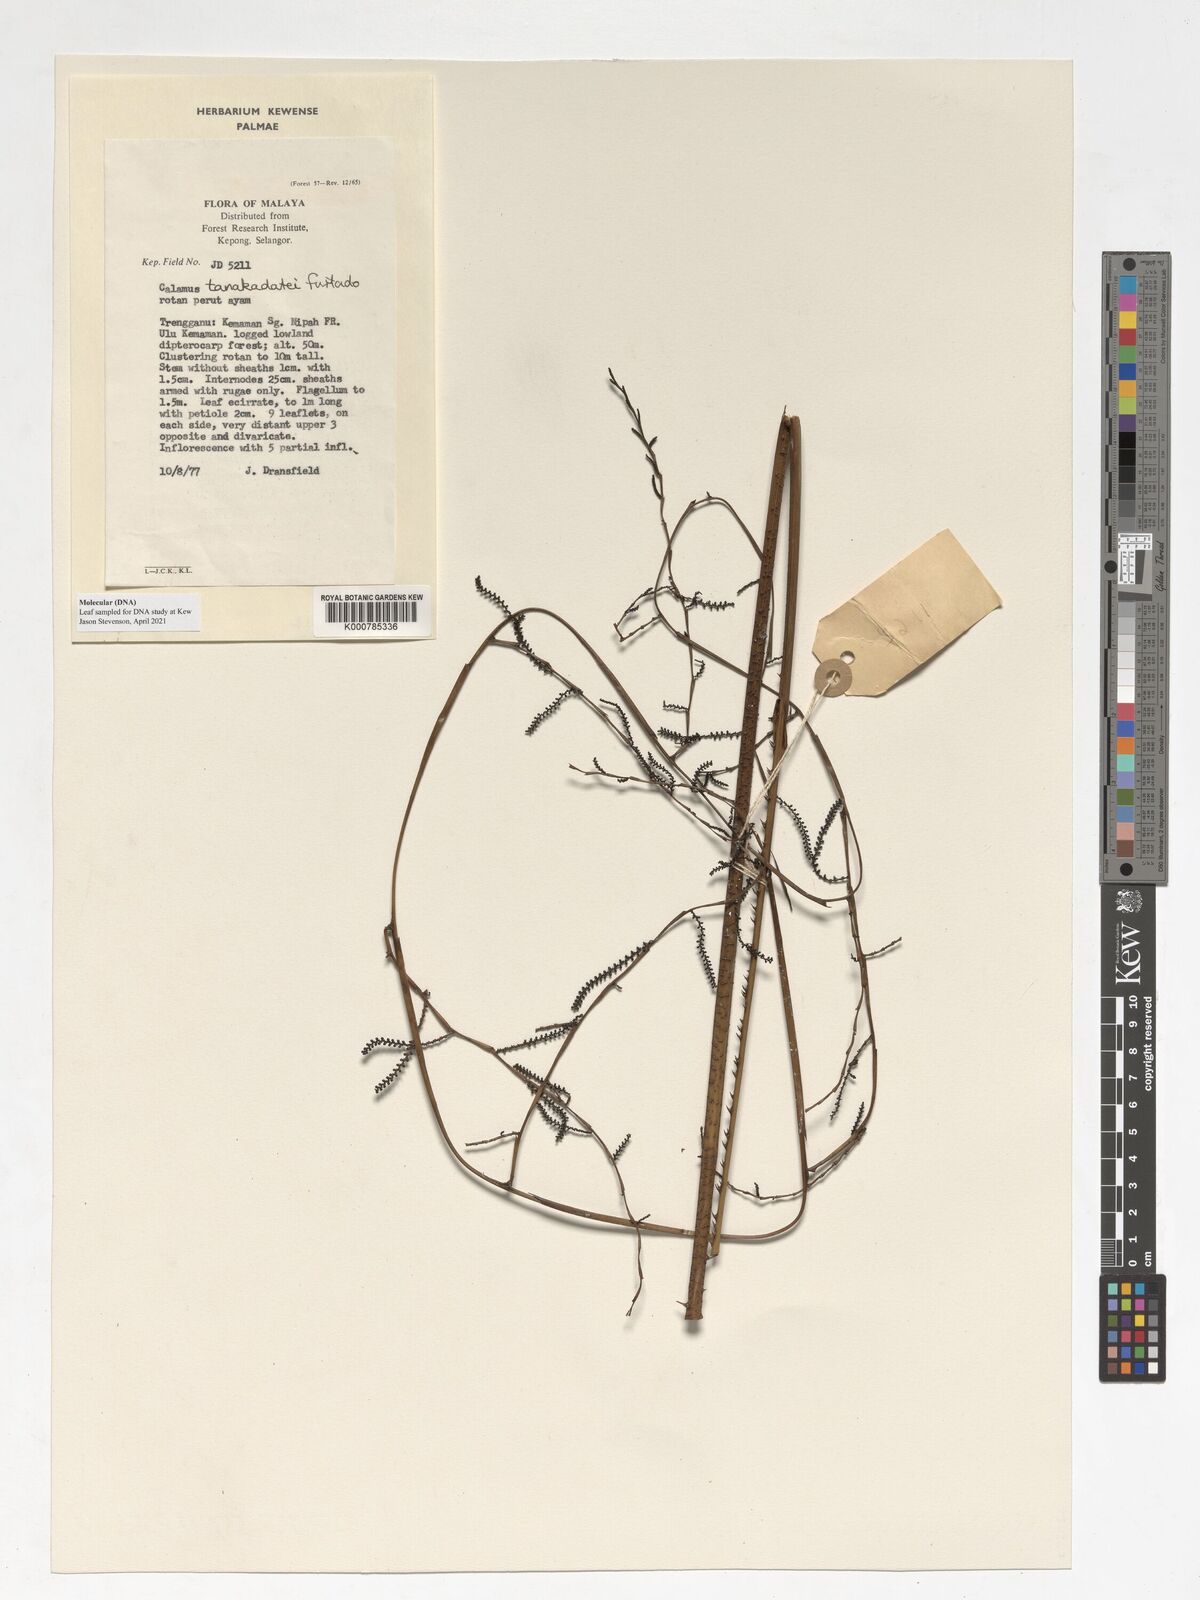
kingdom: Plantae
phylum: Tracheophyta
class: Liliopsida
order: Arecales
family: Arecaceae
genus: Calamus
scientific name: Calamus ruvidus
